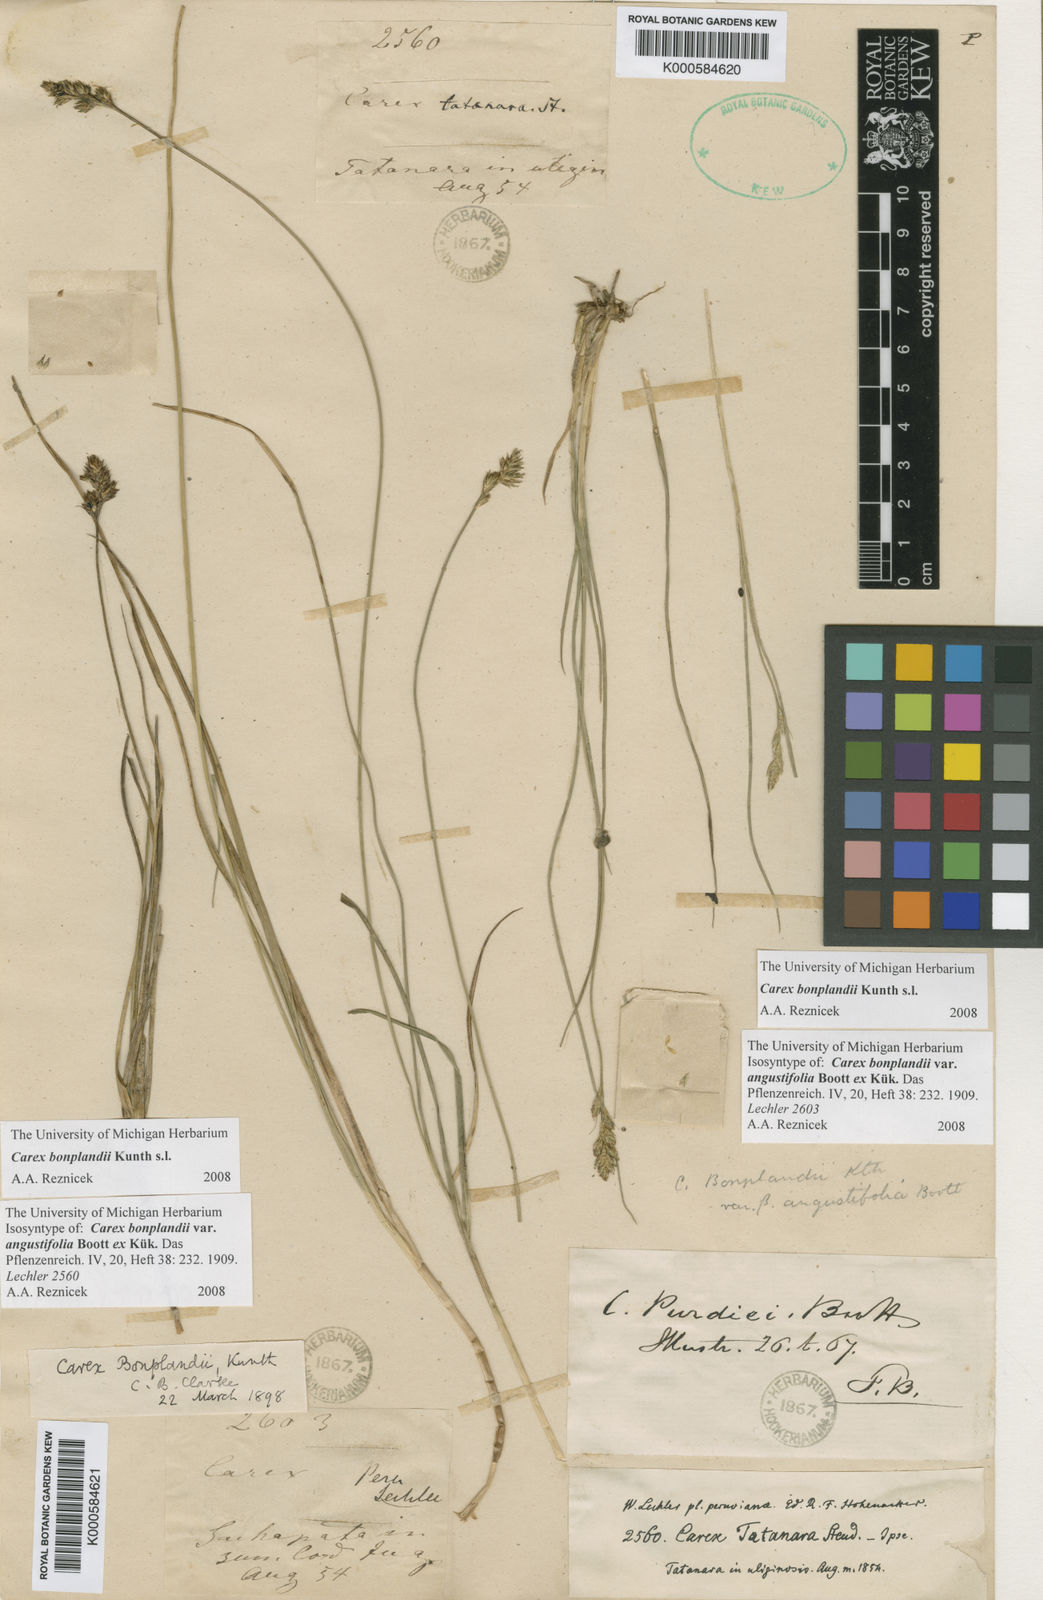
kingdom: Plantae
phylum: Tracheophyta
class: Liliopsida
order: Poales
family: Cyperaceae
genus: Carex
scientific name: Carex bonplandii
